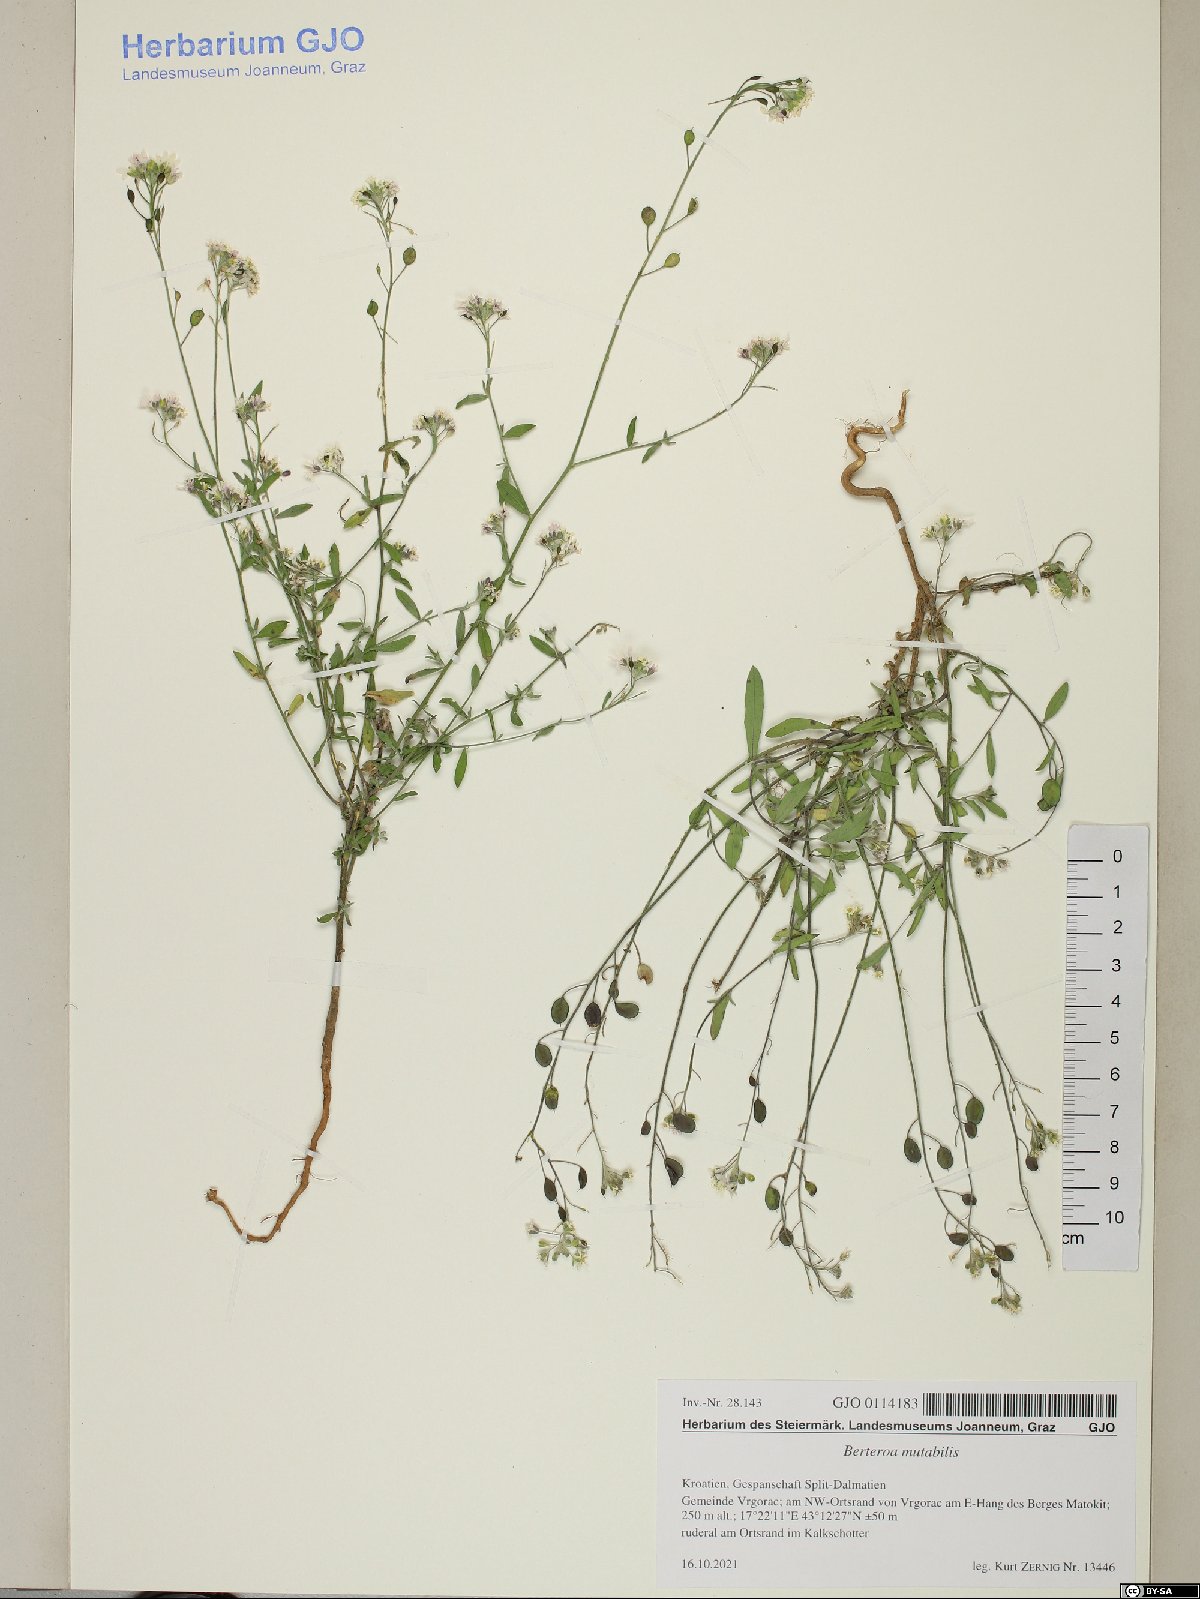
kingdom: Plantae
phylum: Tracheophyta
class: Magnoliopsida
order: Brassicales
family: Brassicaceae
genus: Berteroa
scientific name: Berteroa mutabilis
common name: Roadside false madwort
